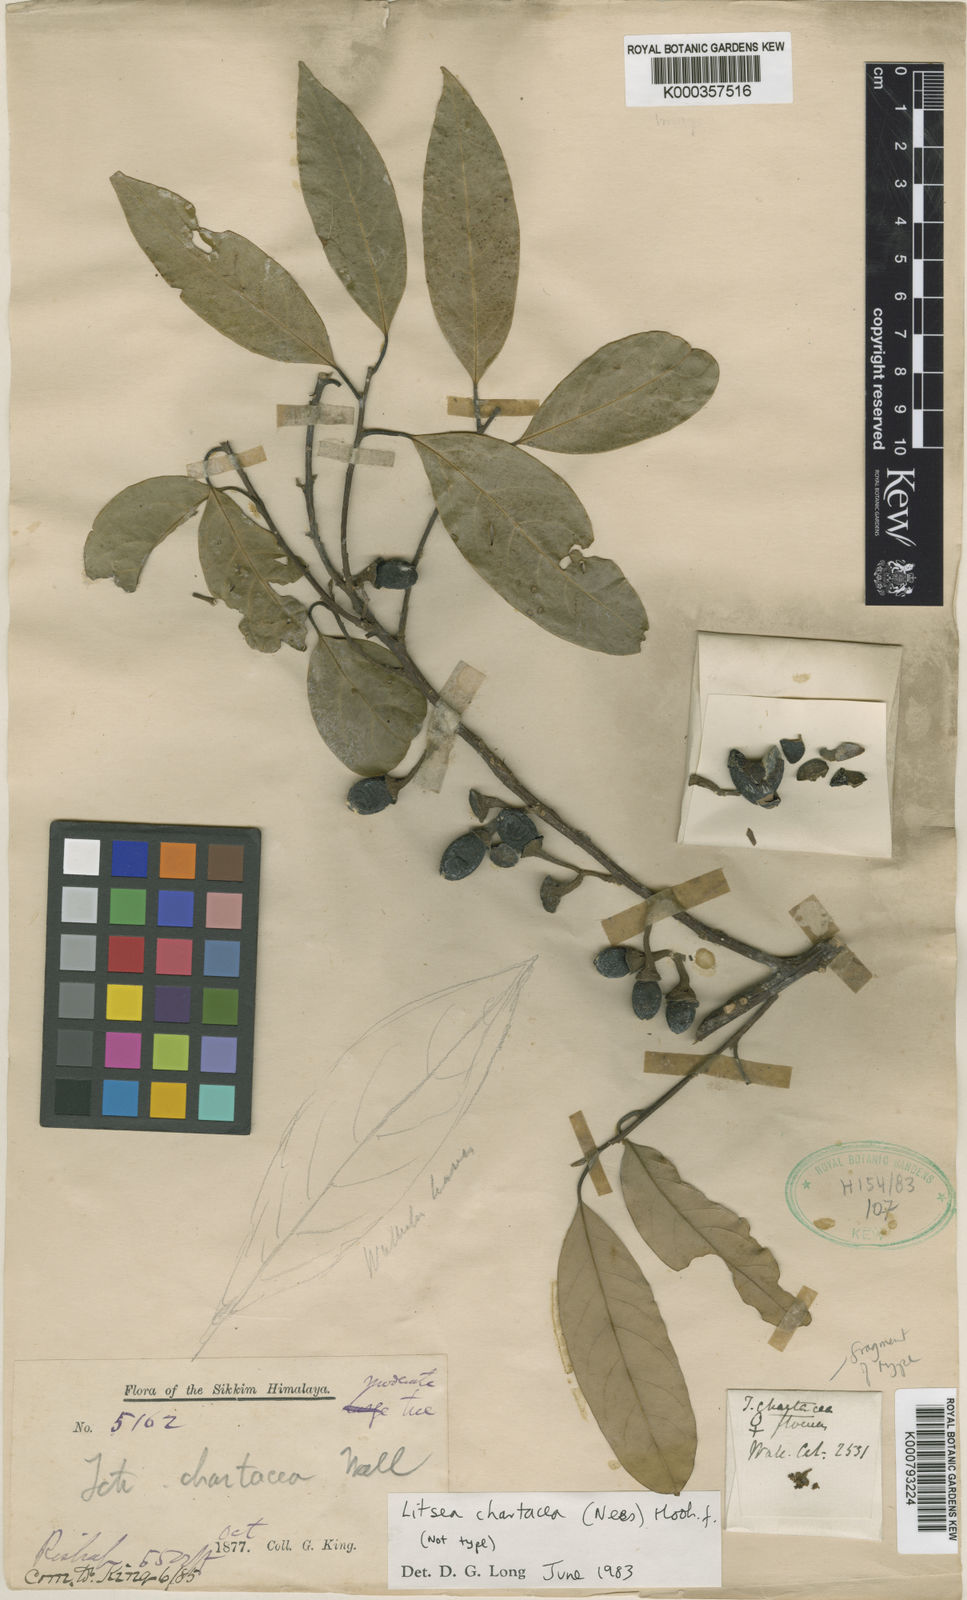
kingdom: Plantae
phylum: Tracheophyta
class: Magnoliopsida
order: Laurales
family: Lauraceae
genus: Litsea
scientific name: Litsea chartacea
